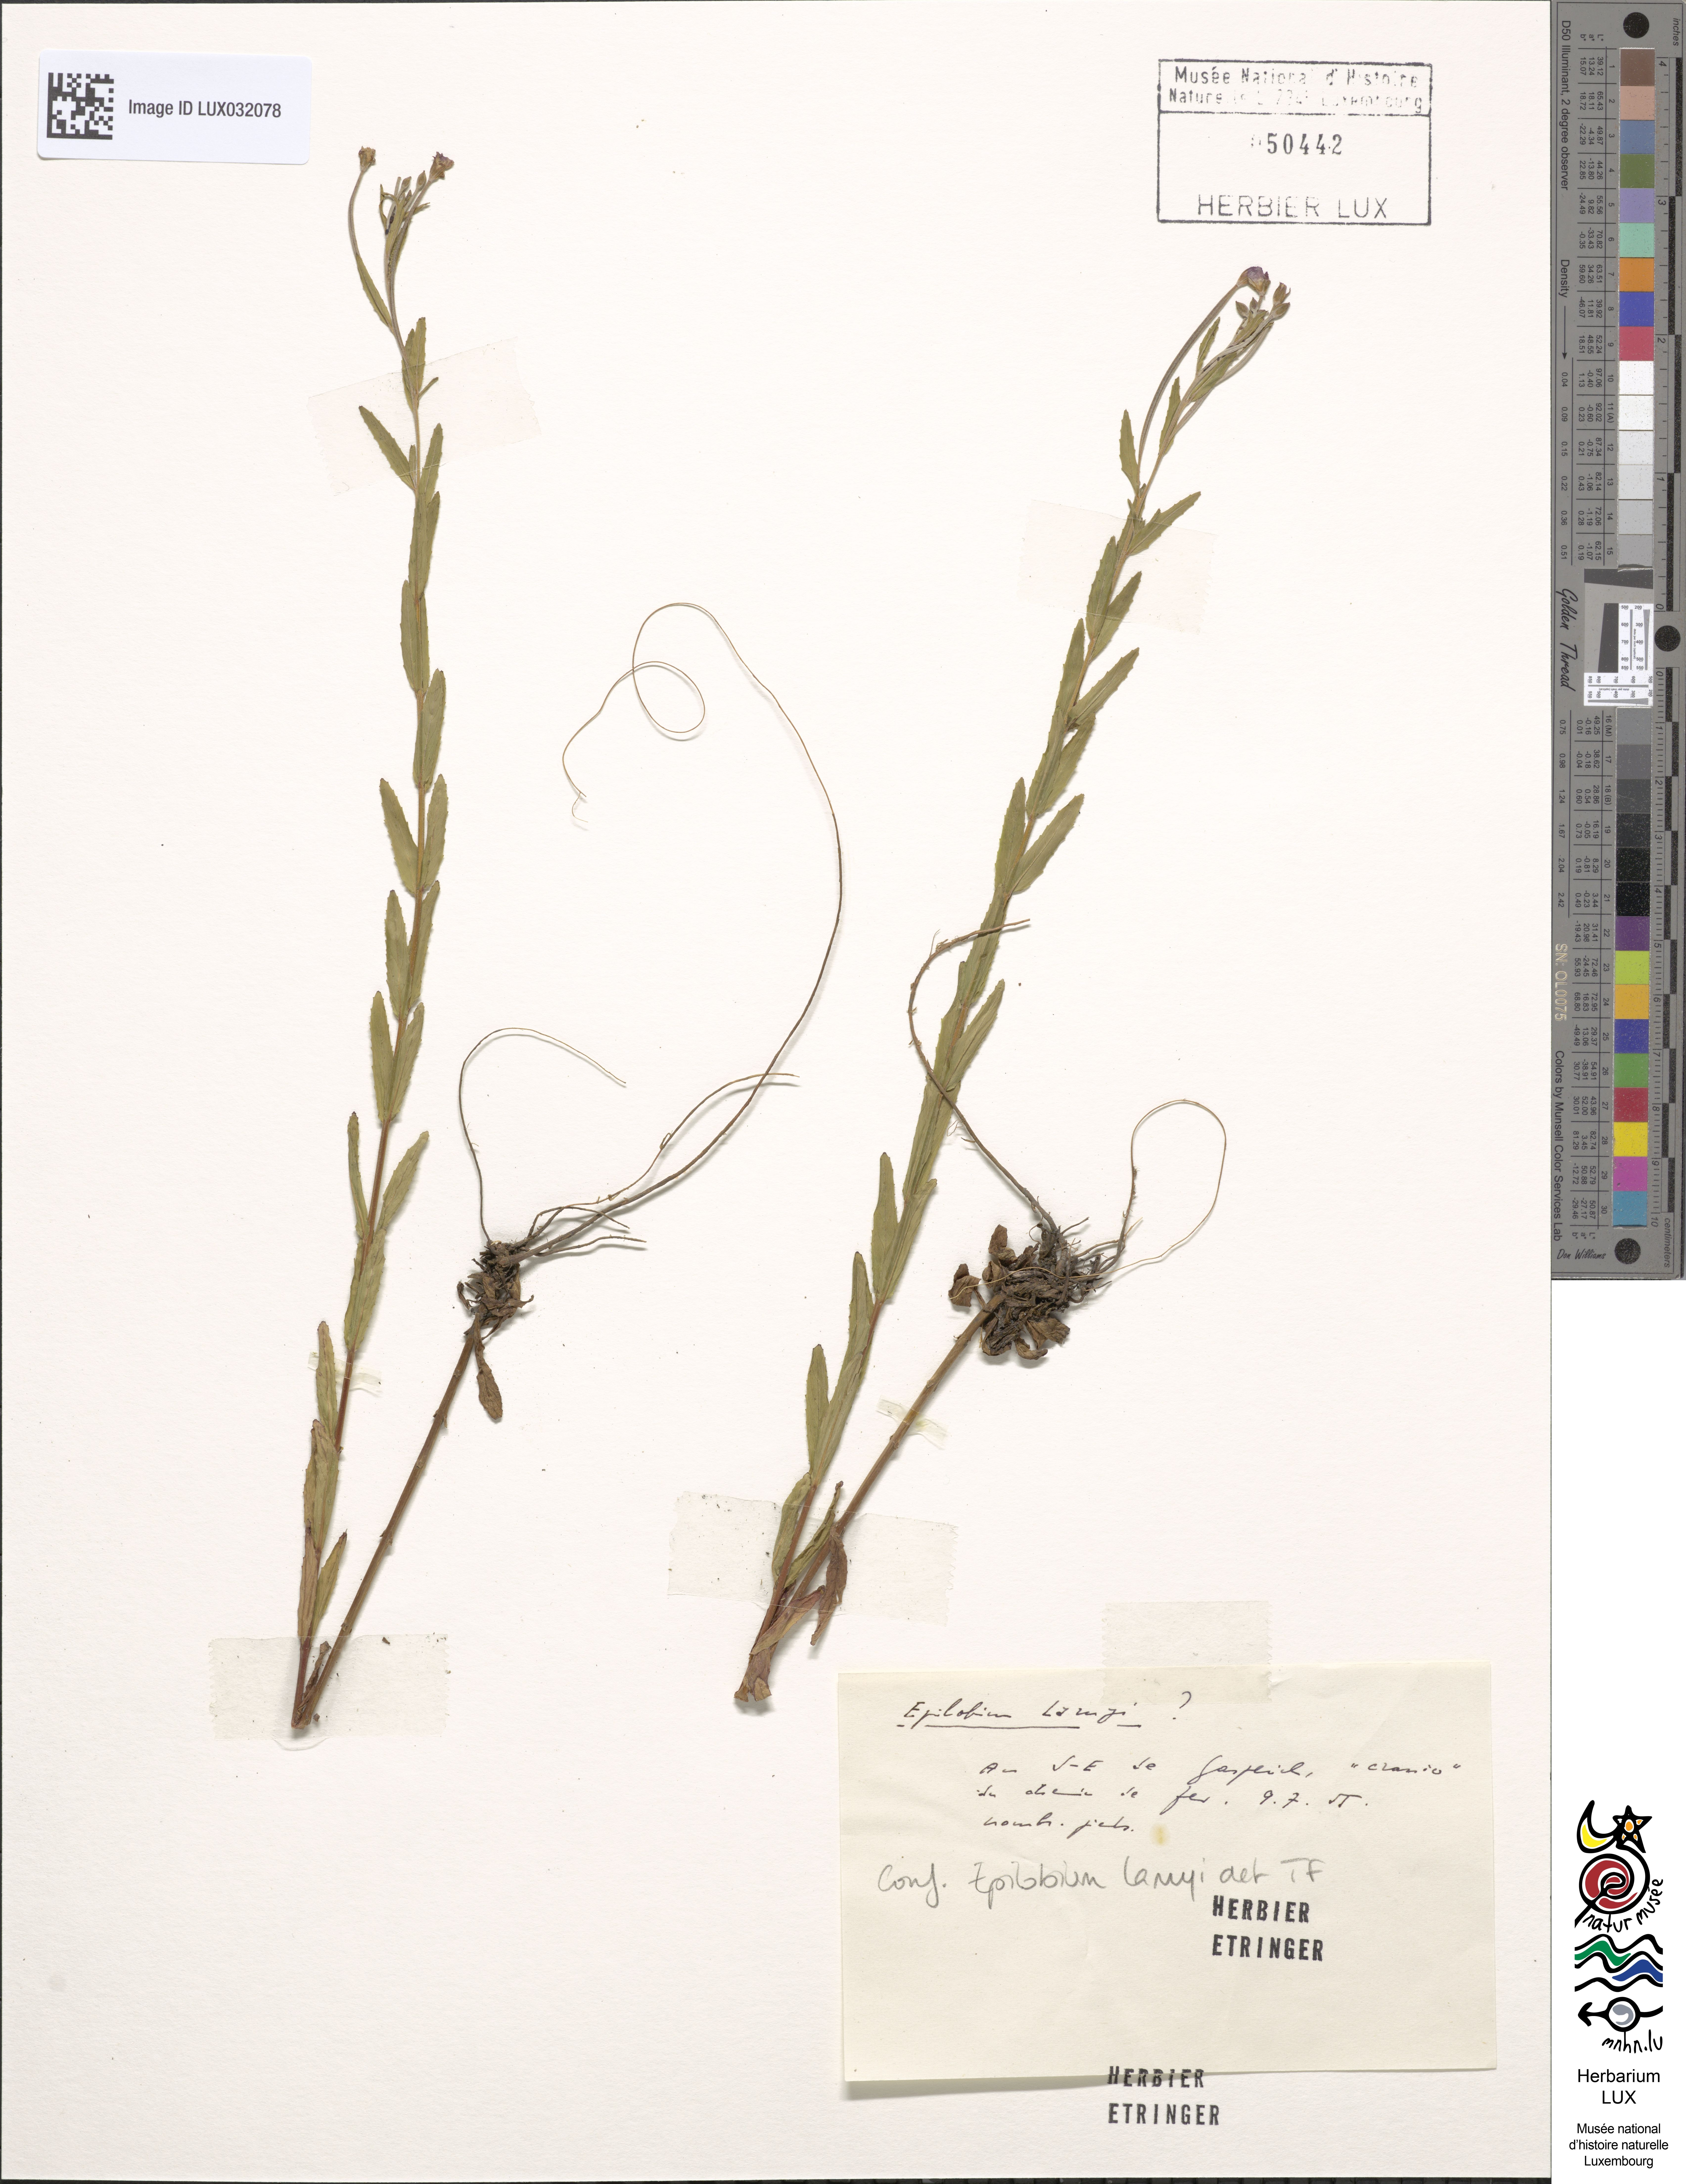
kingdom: Plantae
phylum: Tracheophyta
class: Magnoliopsida
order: Myrtales
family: Onagraceae
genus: Epilobium
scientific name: Epilobium lamyi
